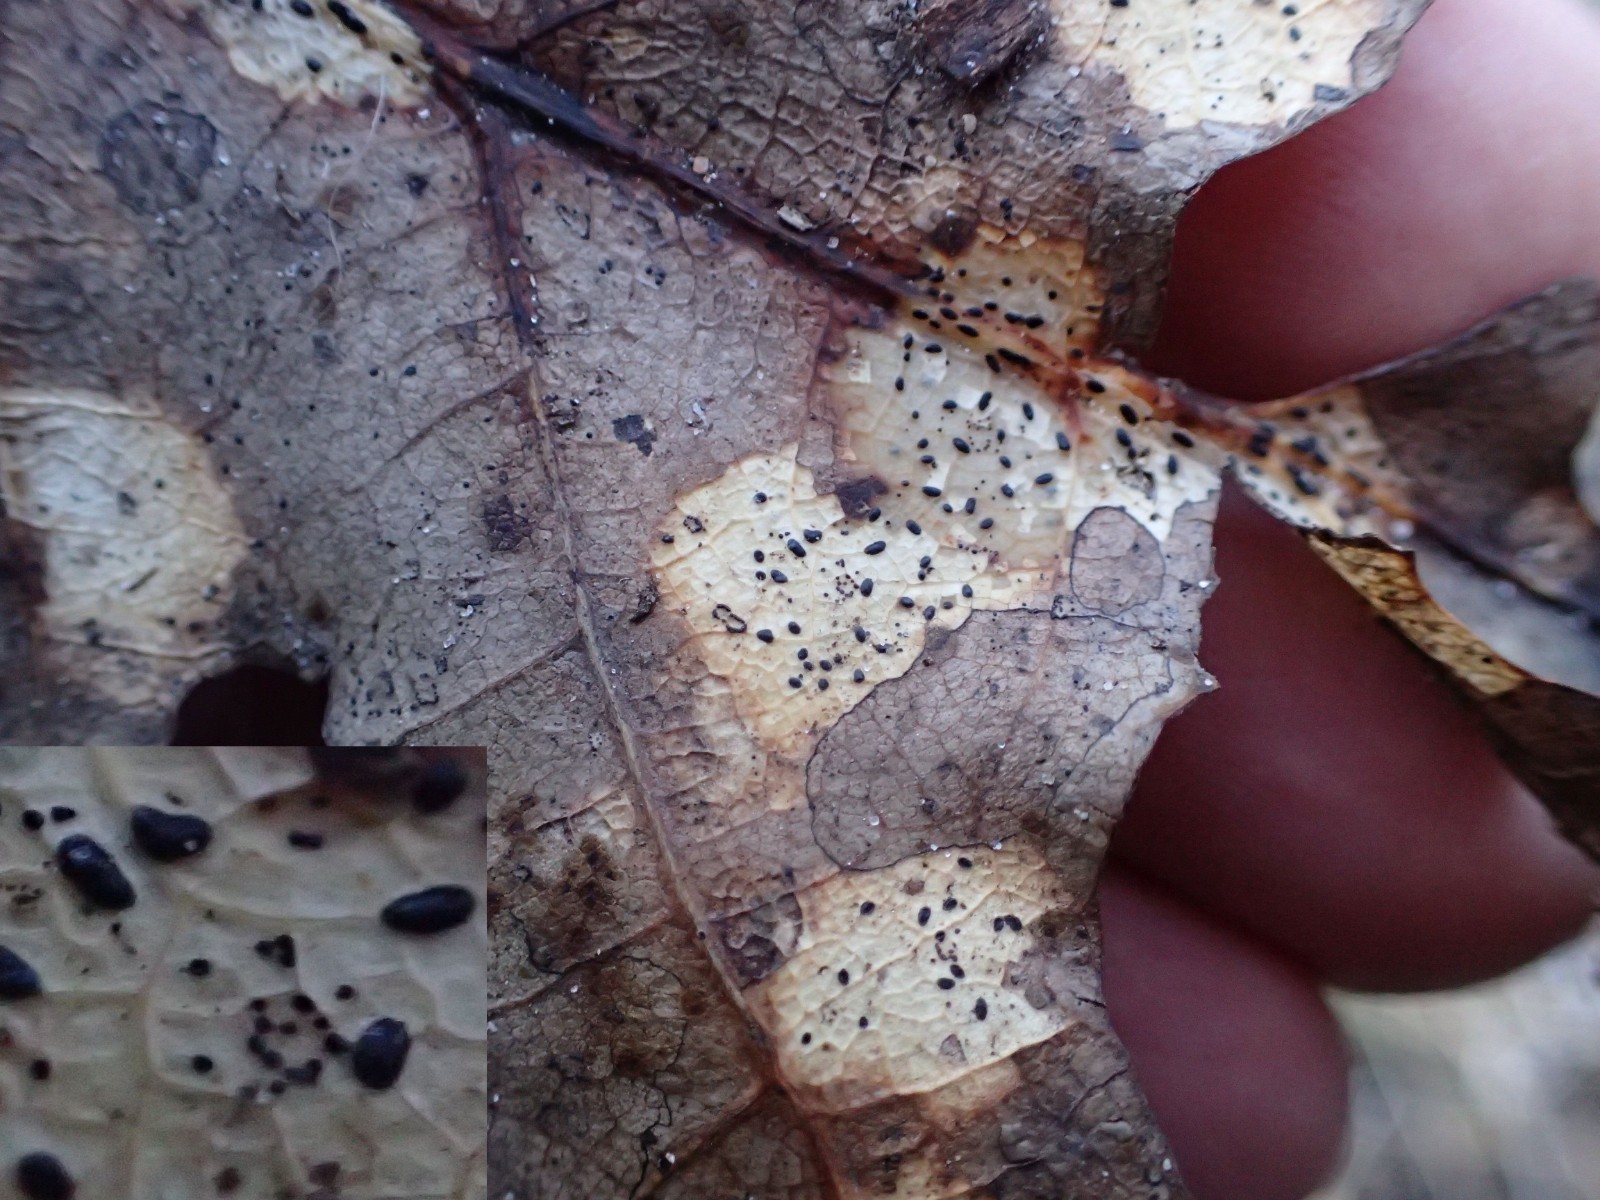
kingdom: Plantae
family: Rhytismatales
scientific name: Rhytismatales
